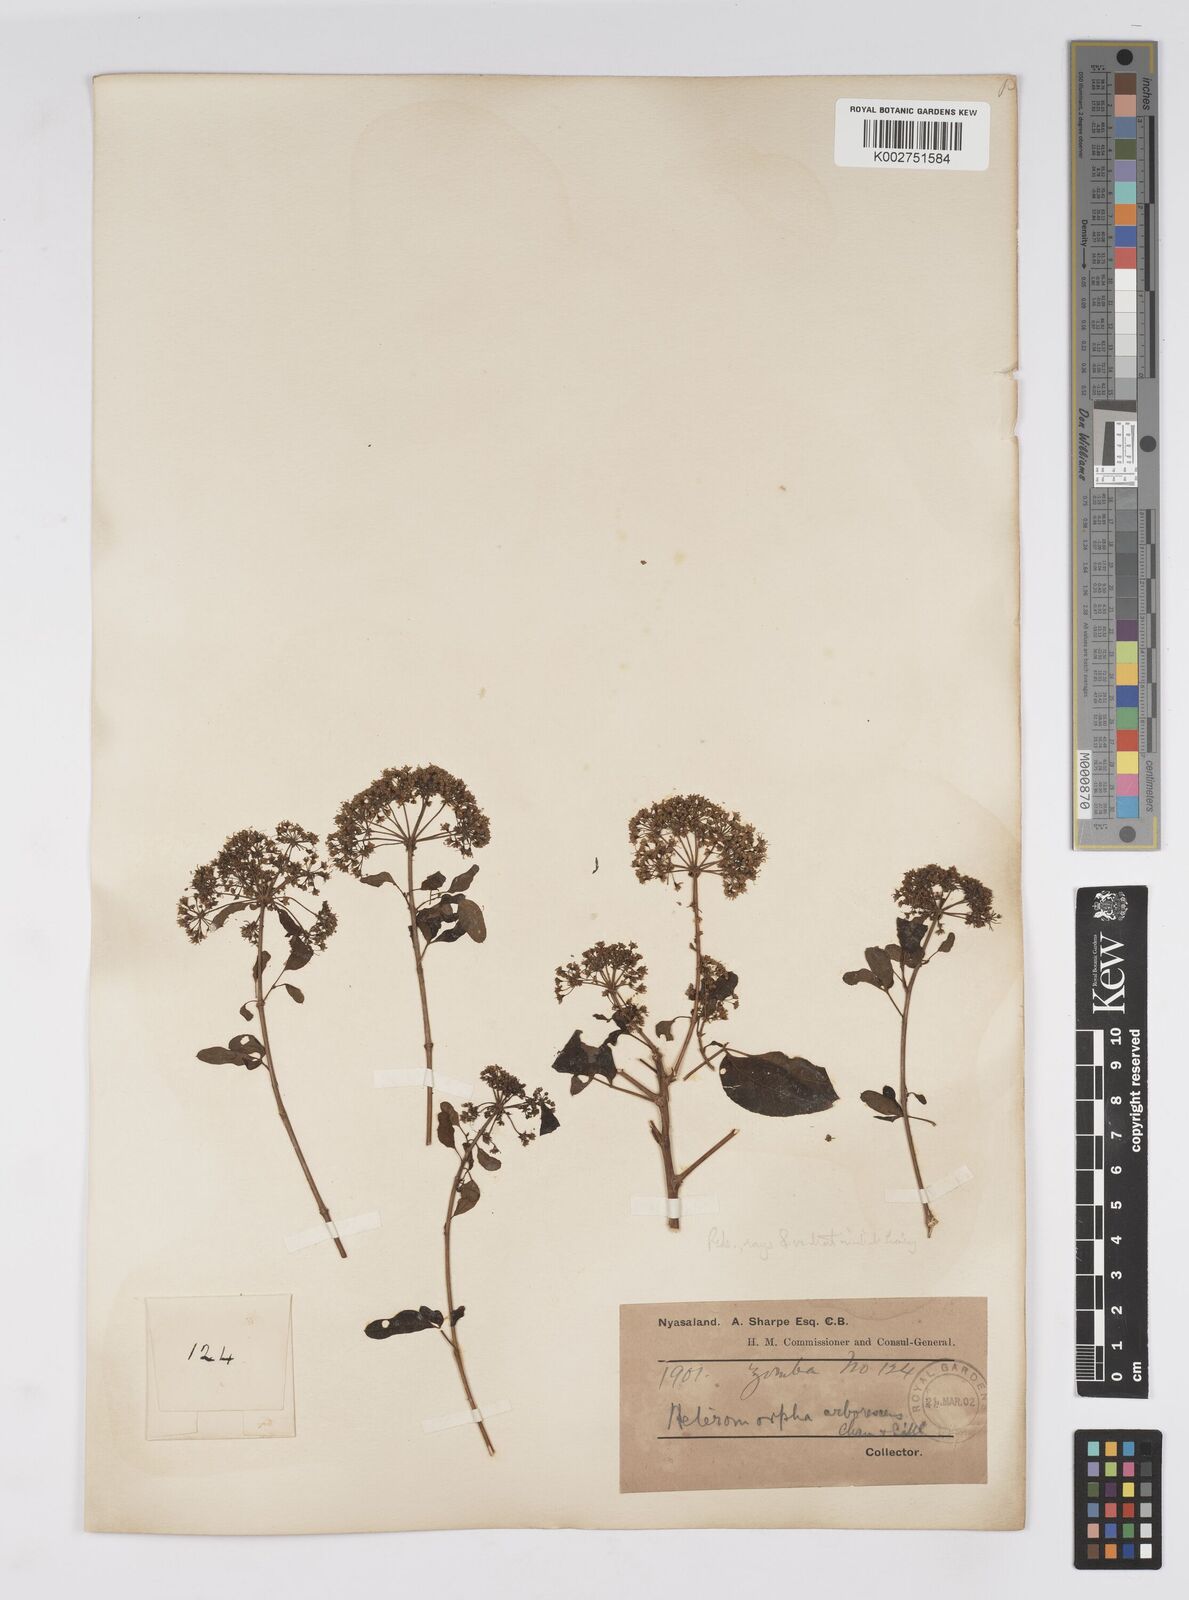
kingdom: Plantae
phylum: Tracheophyta
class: Magnoliopsida
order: Apiales
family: Apiaceae
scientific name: Apiaceae
